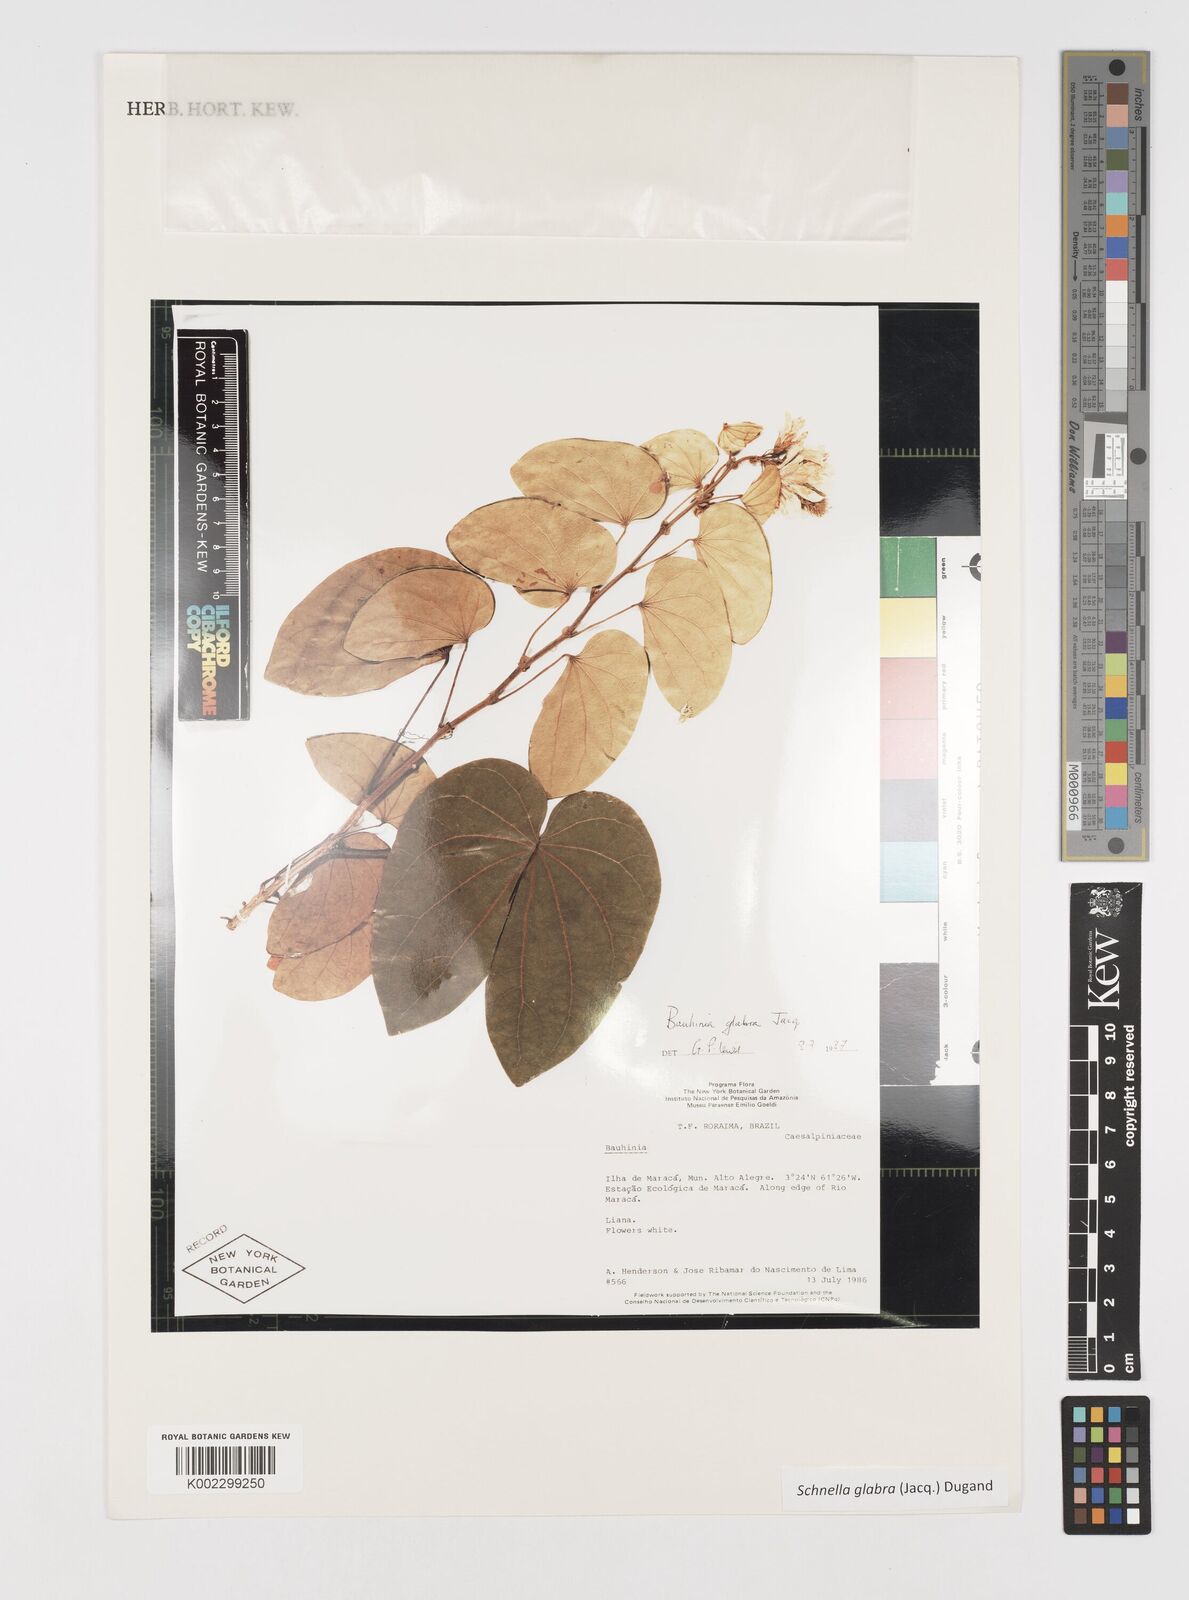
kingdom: Plantae
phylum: Tracheophyta
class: Magnoliopsida
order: Fabales
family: Fabaceae
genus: Schnella
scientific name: Schnella glabra
